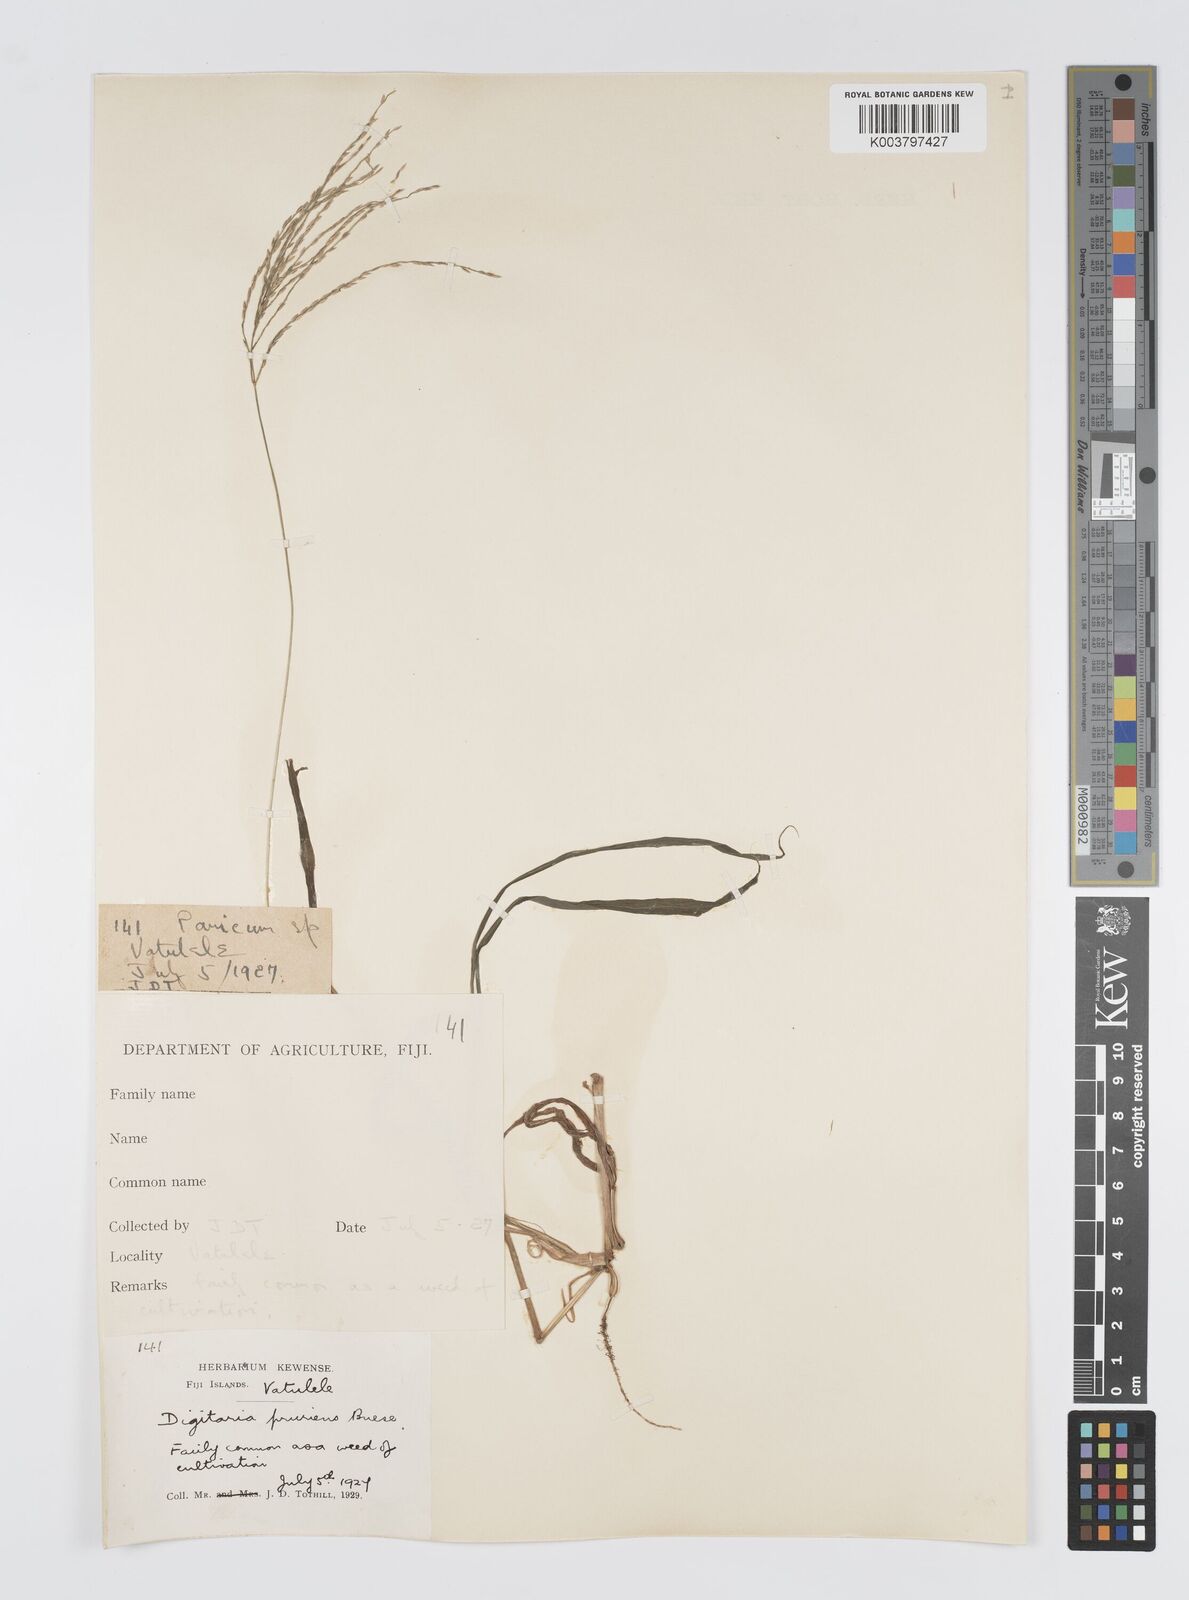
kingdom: Plantae
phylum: Tracheophyta
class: Liliopsida
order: Poales
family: Poaceae
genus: Digitaria
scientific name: Digitaria setigera
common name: East indian crabgrass
